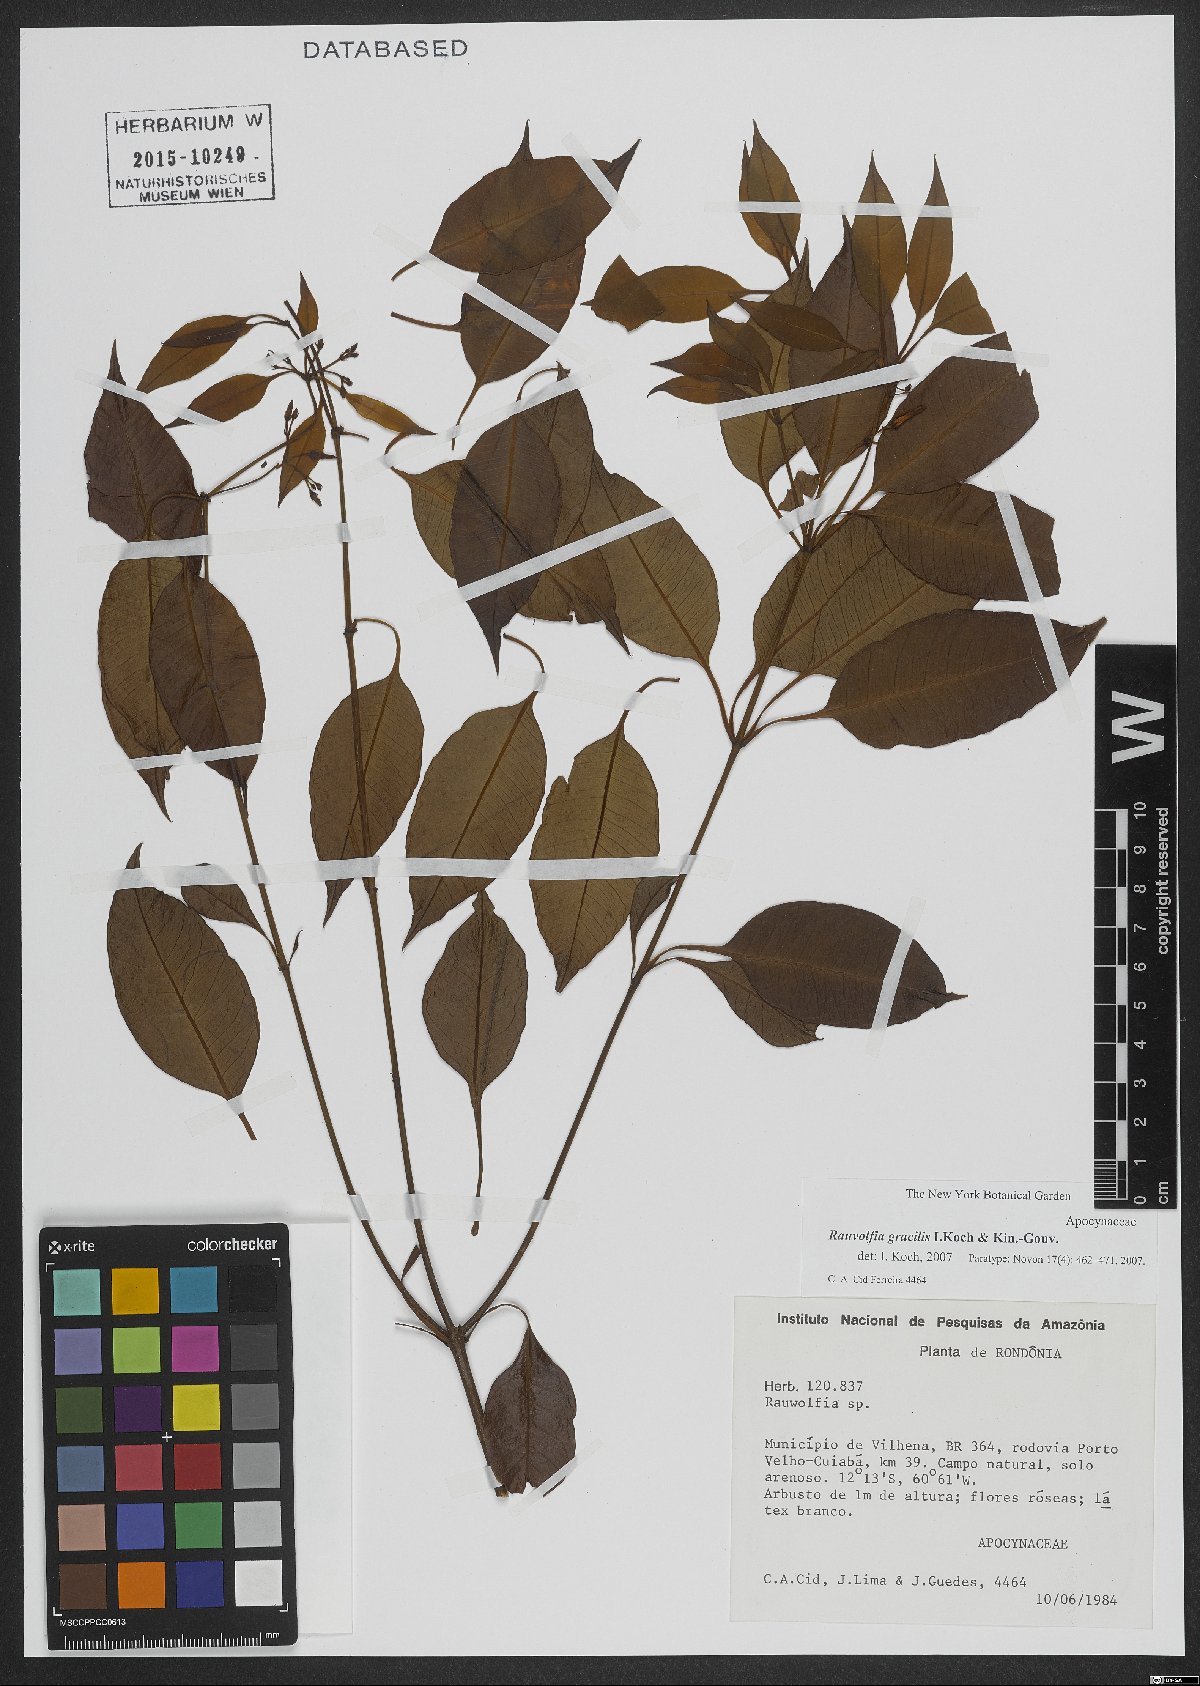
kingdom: Plantae
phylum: Tracheophyta
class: Magnoliopsida
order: Gentianales
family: Apocynaceae
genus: Rauvolfia
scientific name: Rauvolfia gracilis
